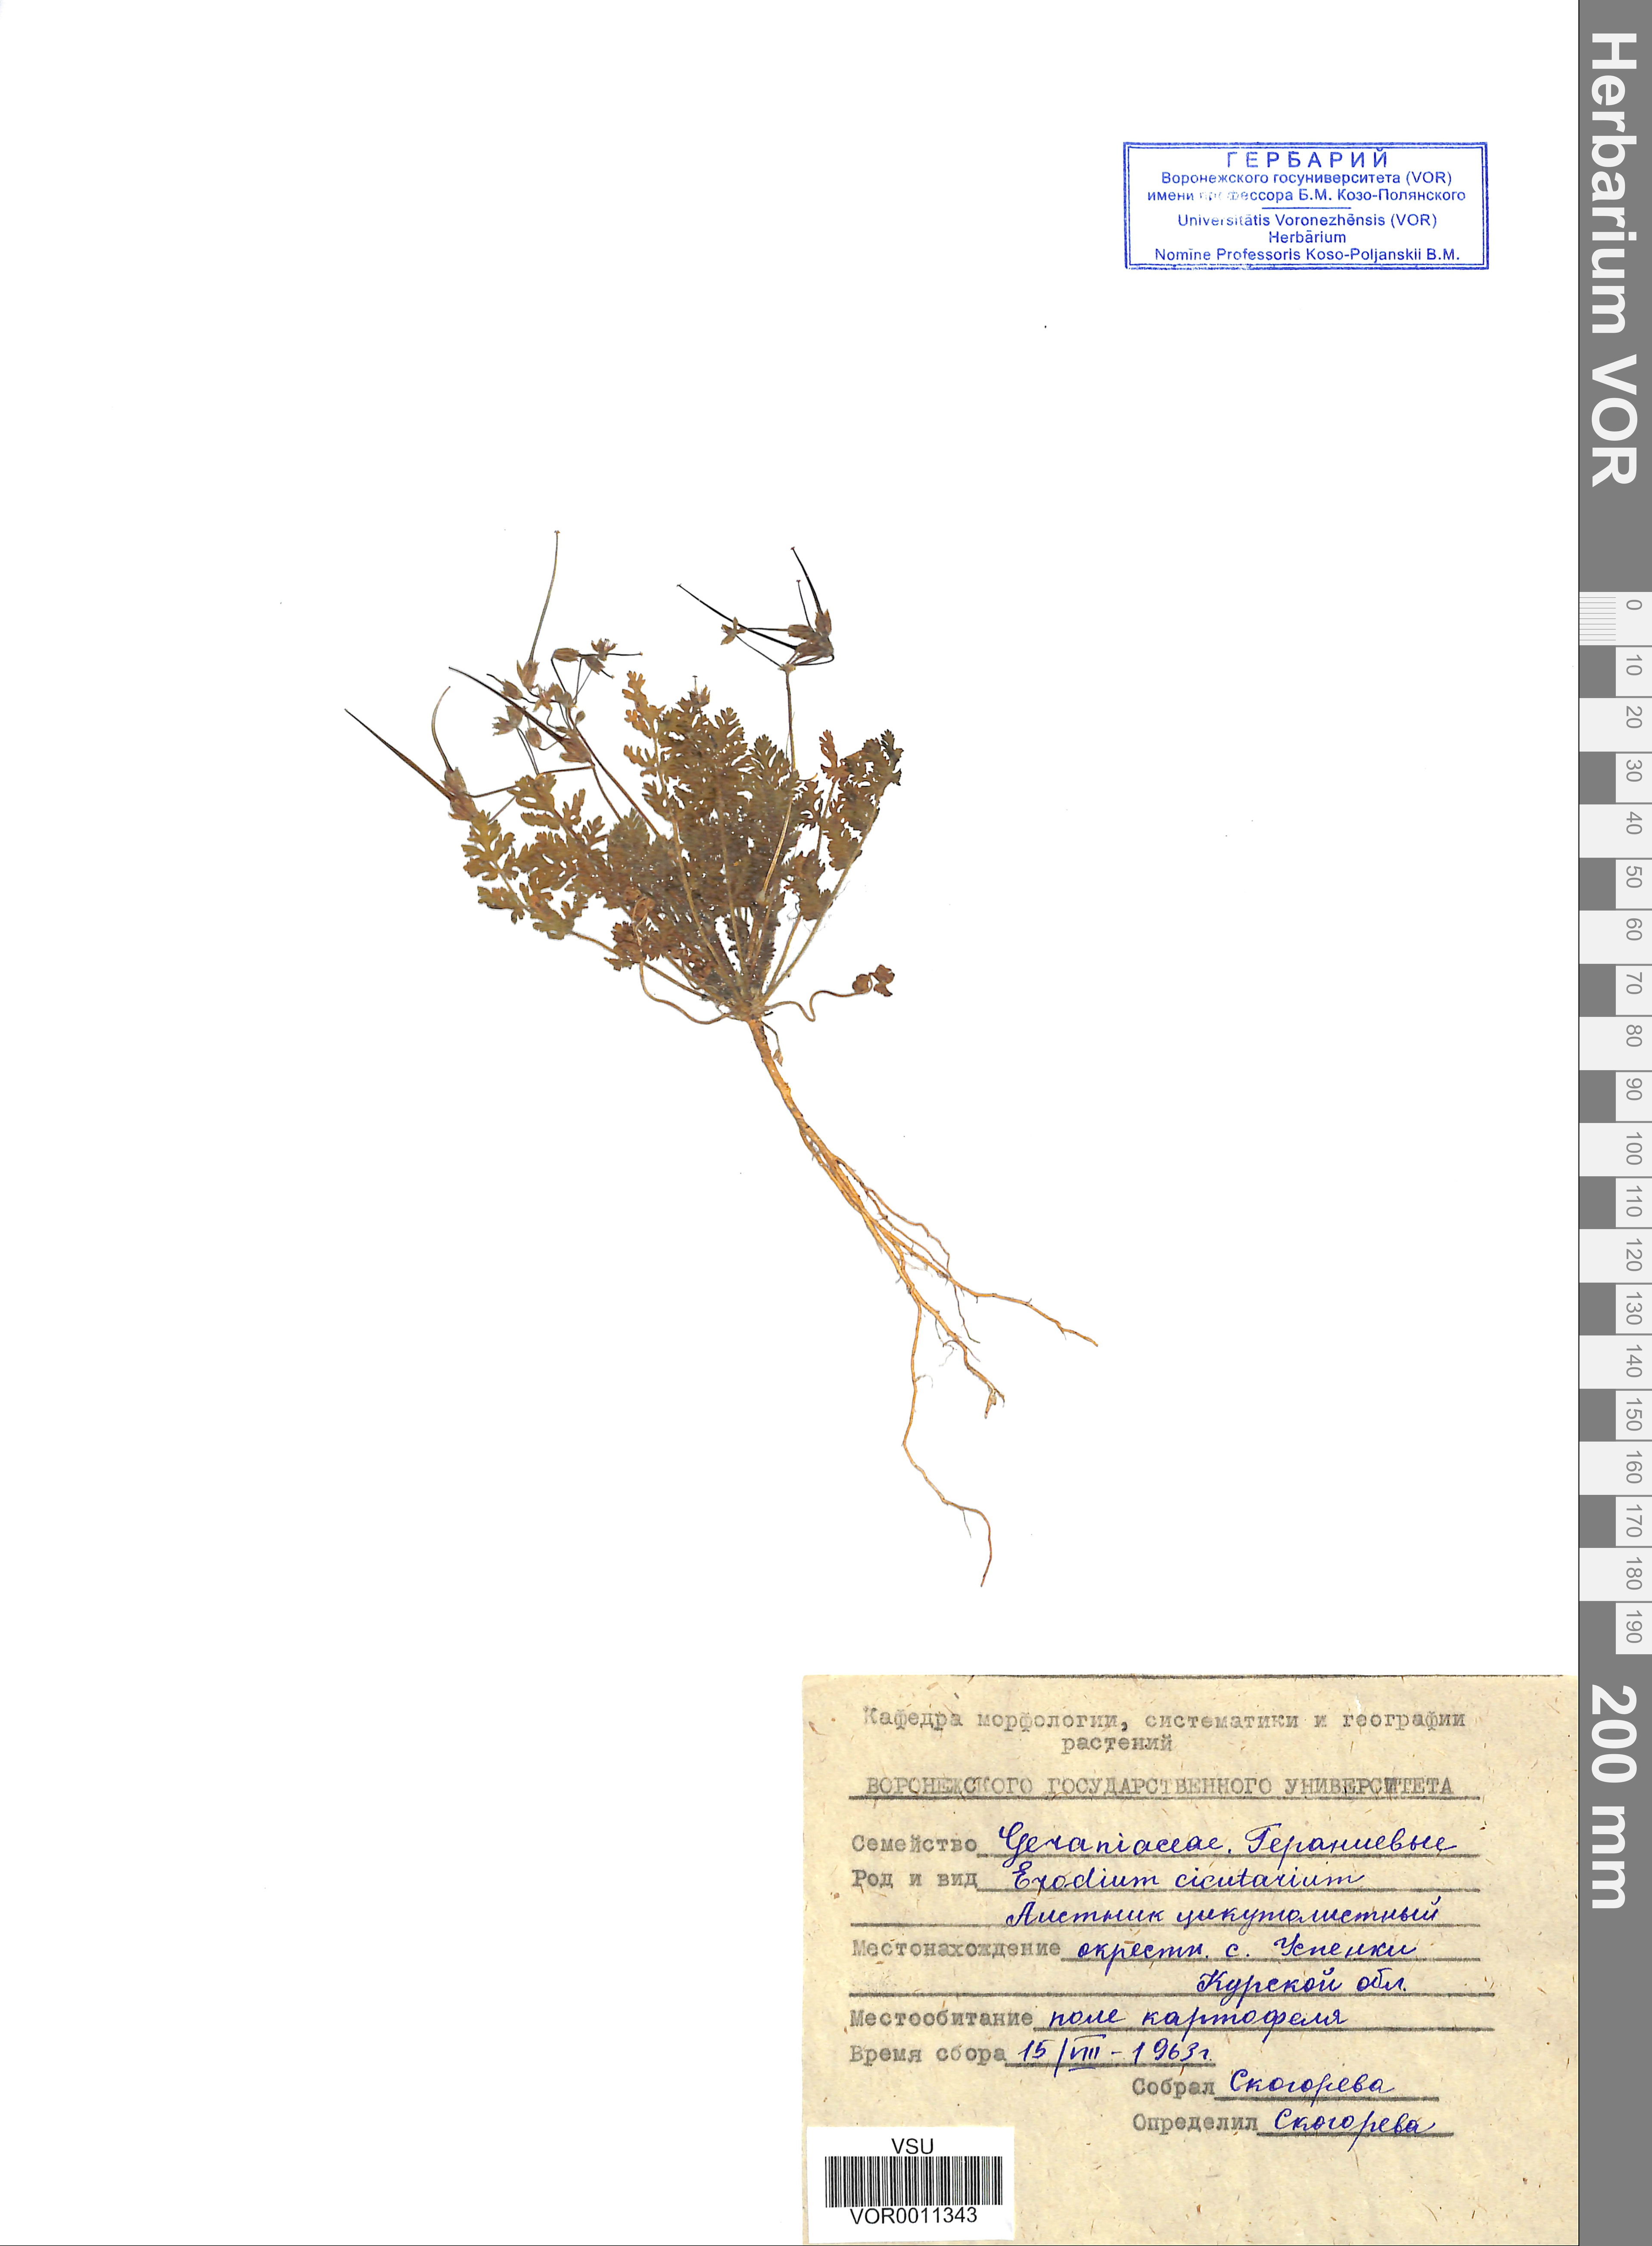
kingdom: Plantae
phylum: Tracheophyta
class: Magnoliopsida
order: Geraniales
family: Geraniaceae
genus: Erodium
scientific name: Erodium cicutarium
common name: Common stork's-bill
